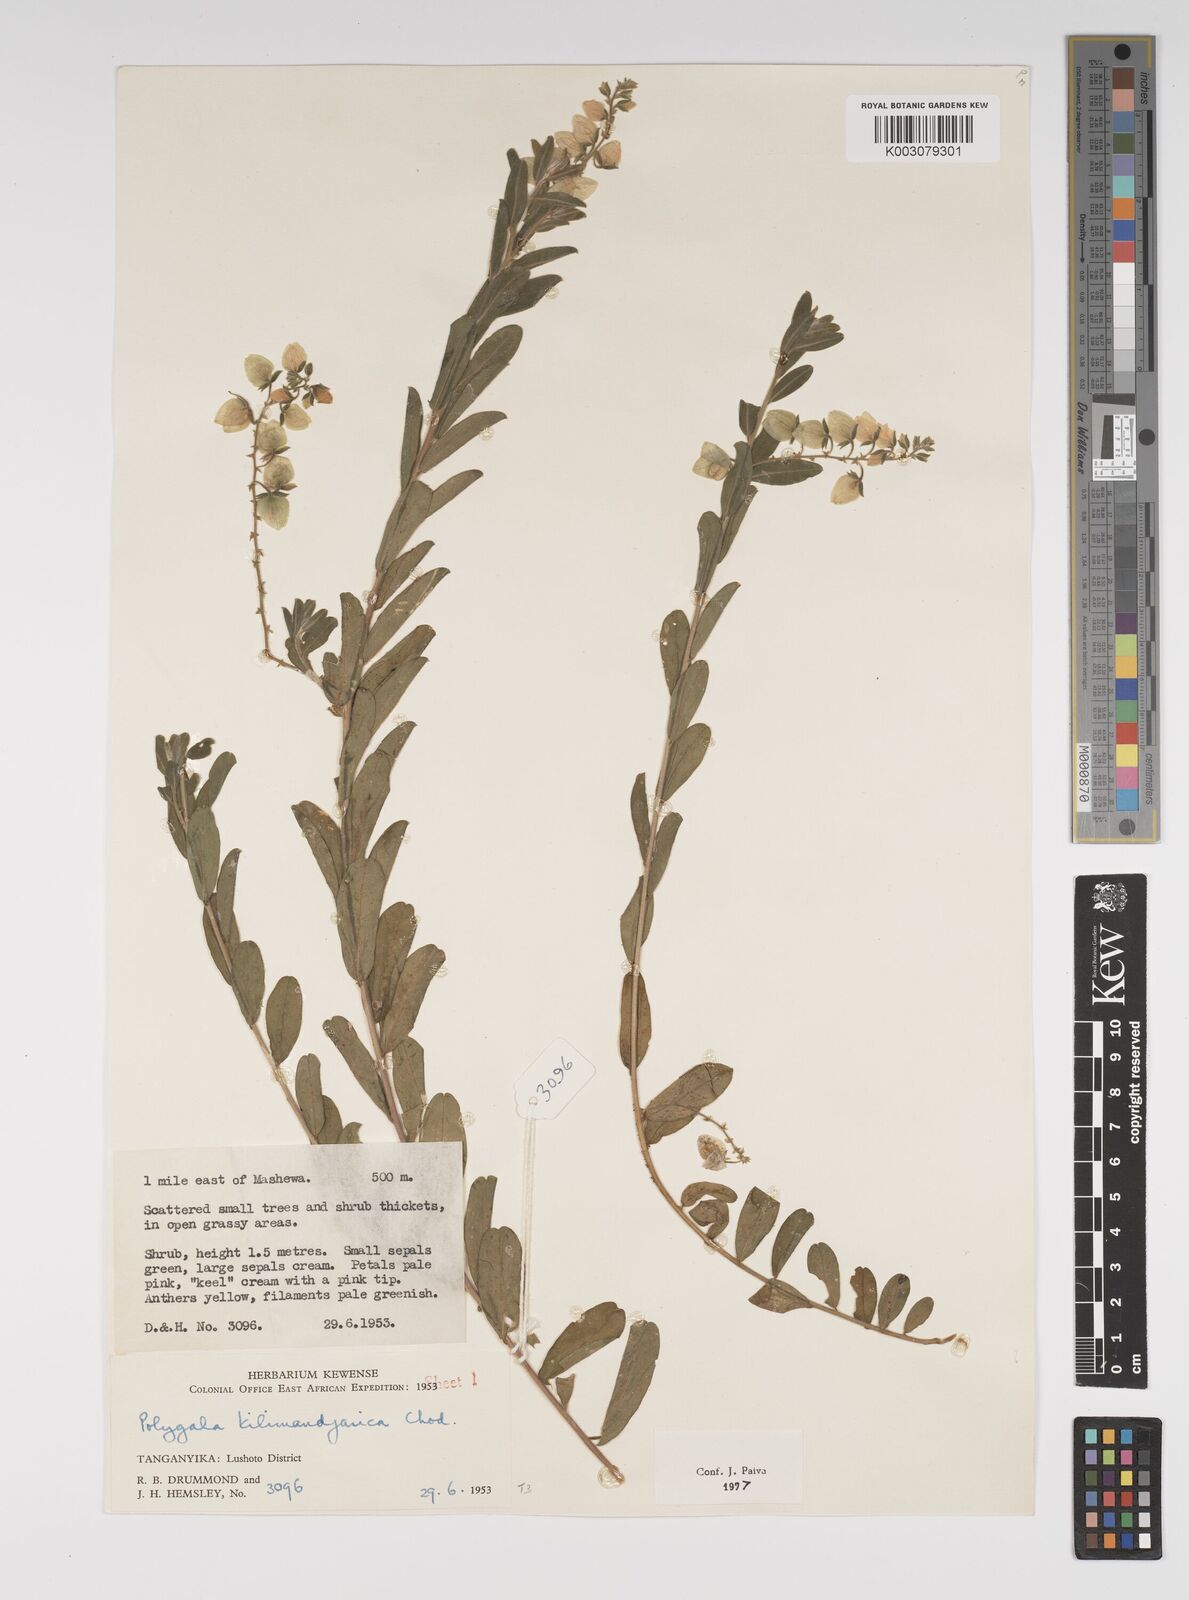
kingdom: Plantae
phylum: Tracheophyta
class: Magnoliopsida
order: Fabales
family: Polygalaceae
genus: Polygala
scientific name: Polygala kilimandjarica
